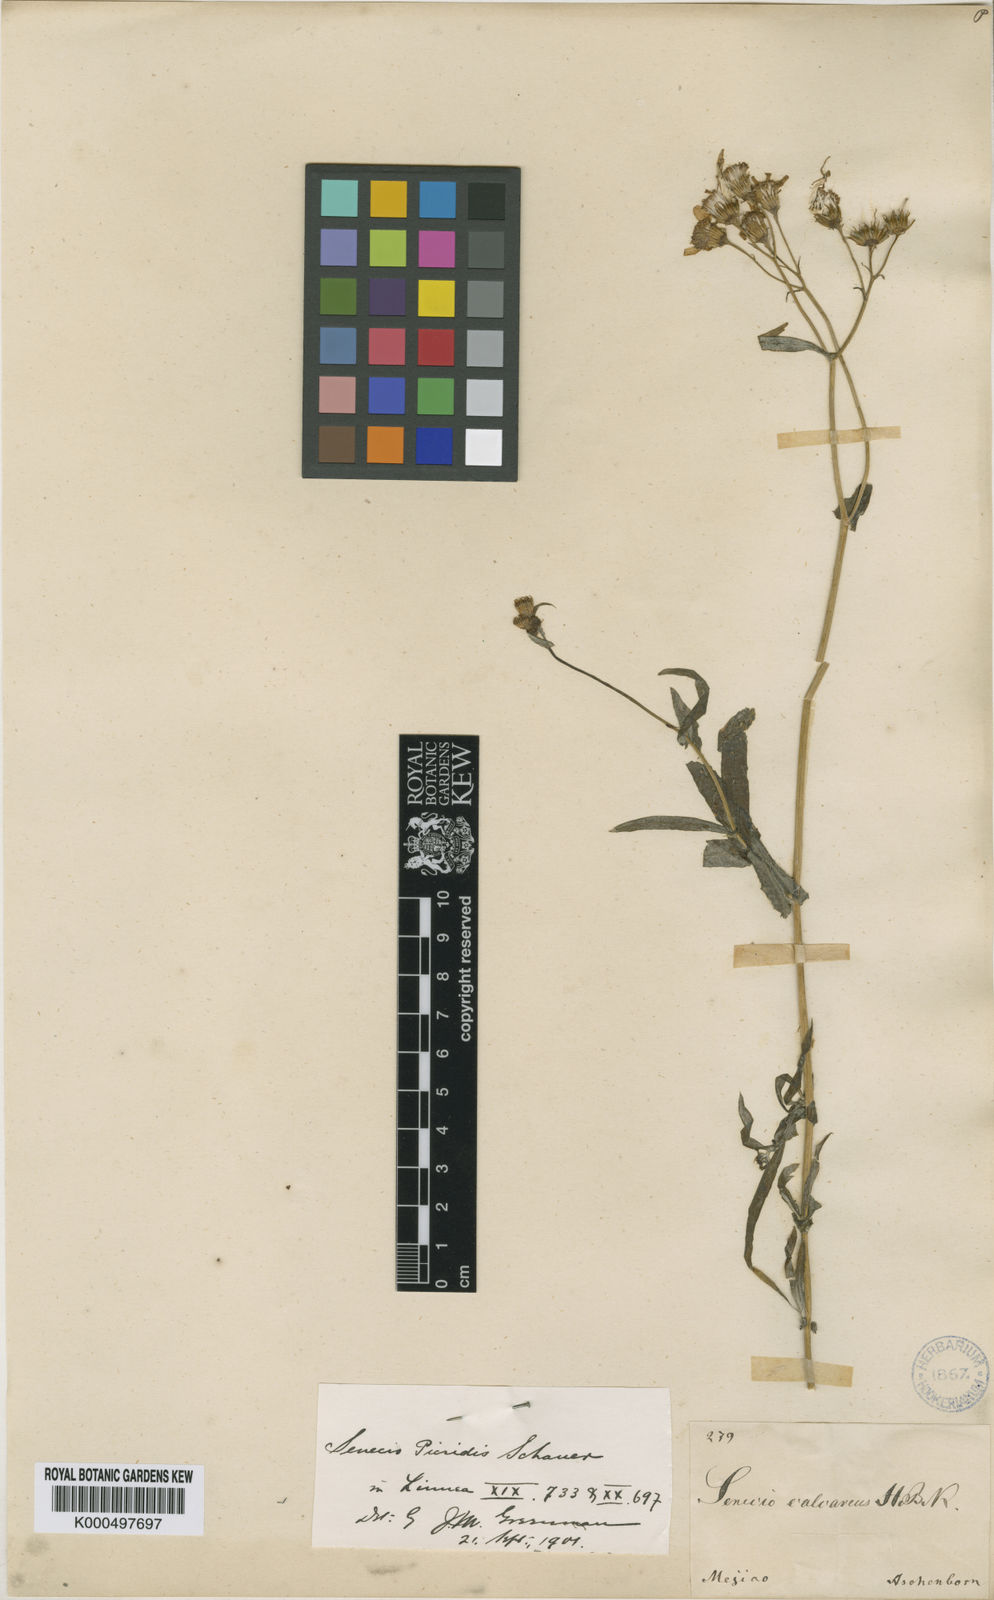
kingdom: Plantae
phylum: Tracheophyta
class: Magnoliopsida
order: Asterales
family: Asteraceae
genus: Senecio
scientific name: Senecio picridis
